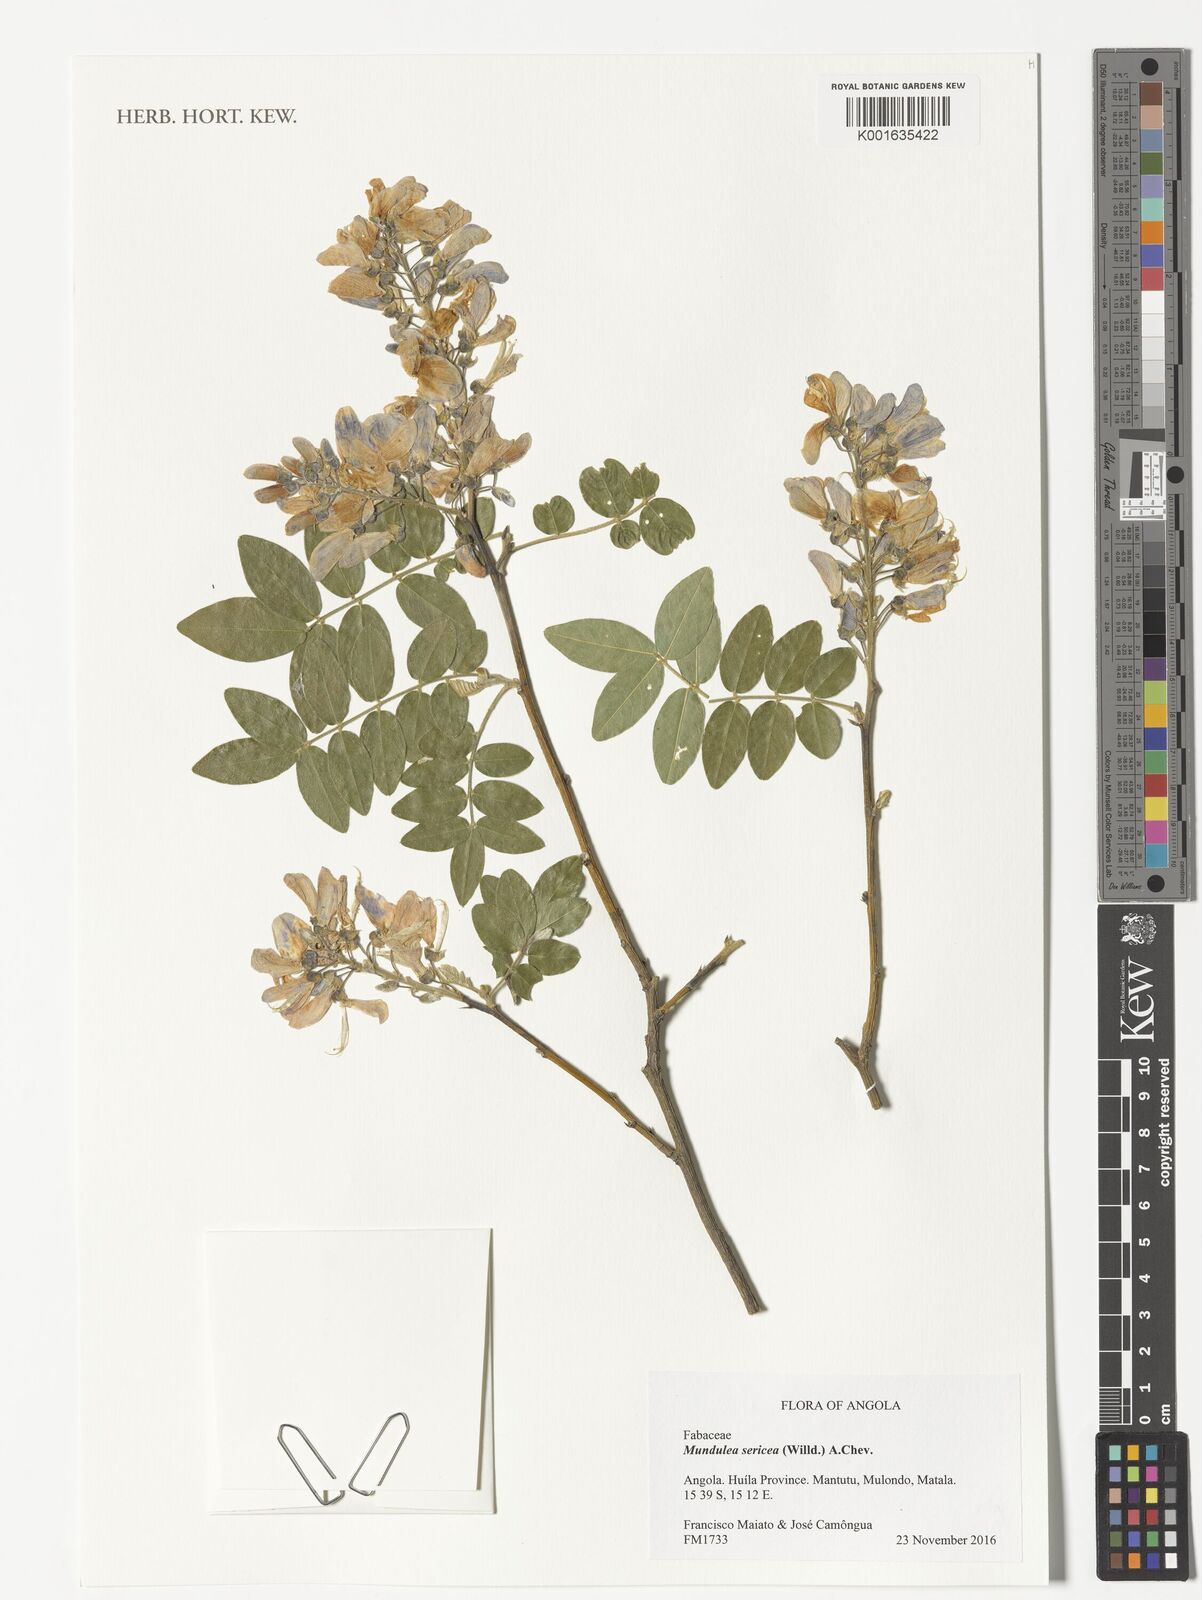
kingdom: Plantae
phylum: Tracheophyta
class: Magnoliopsida
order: Fabales
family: Fabaceae
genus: Mundulea
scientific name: Mundulea sericea
